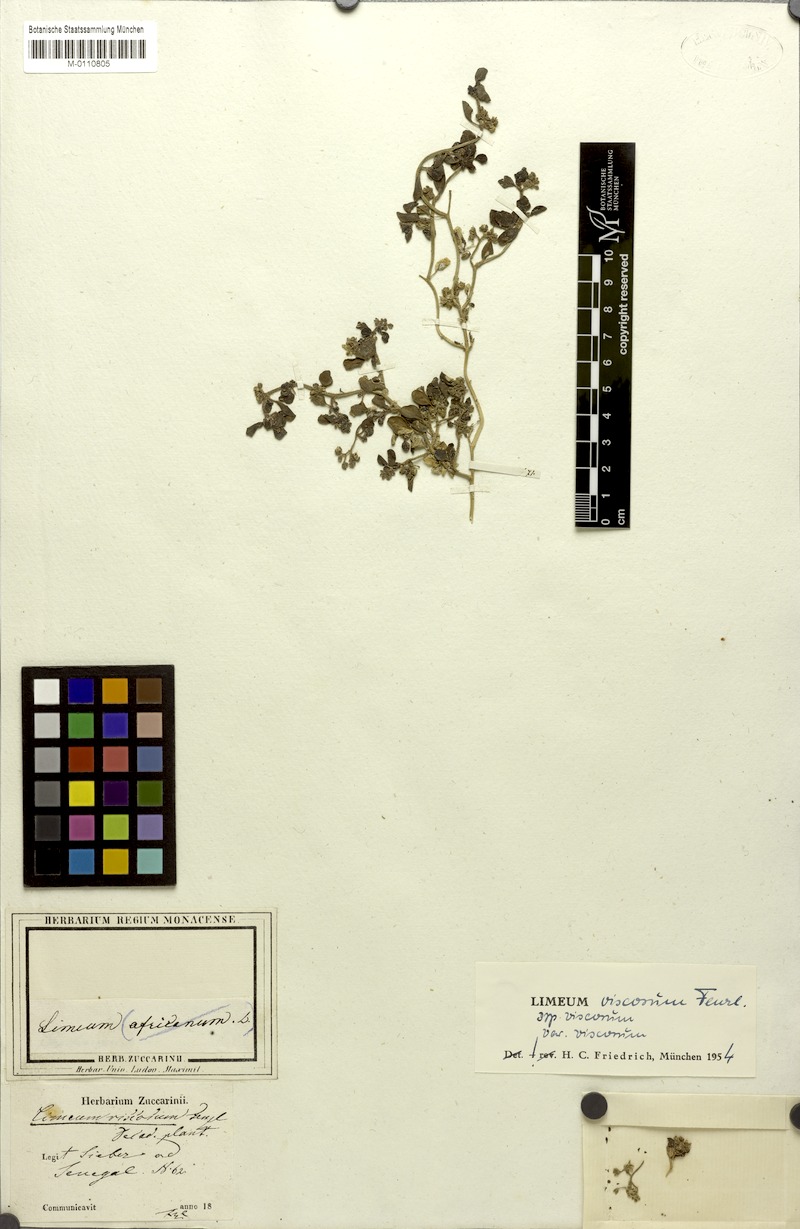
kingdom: Plantae
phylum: Tracheophyta
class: Magnoliopsida
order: Caryophyllales
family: Limeaceae
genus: Limeum
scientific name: Limeum viscosum
